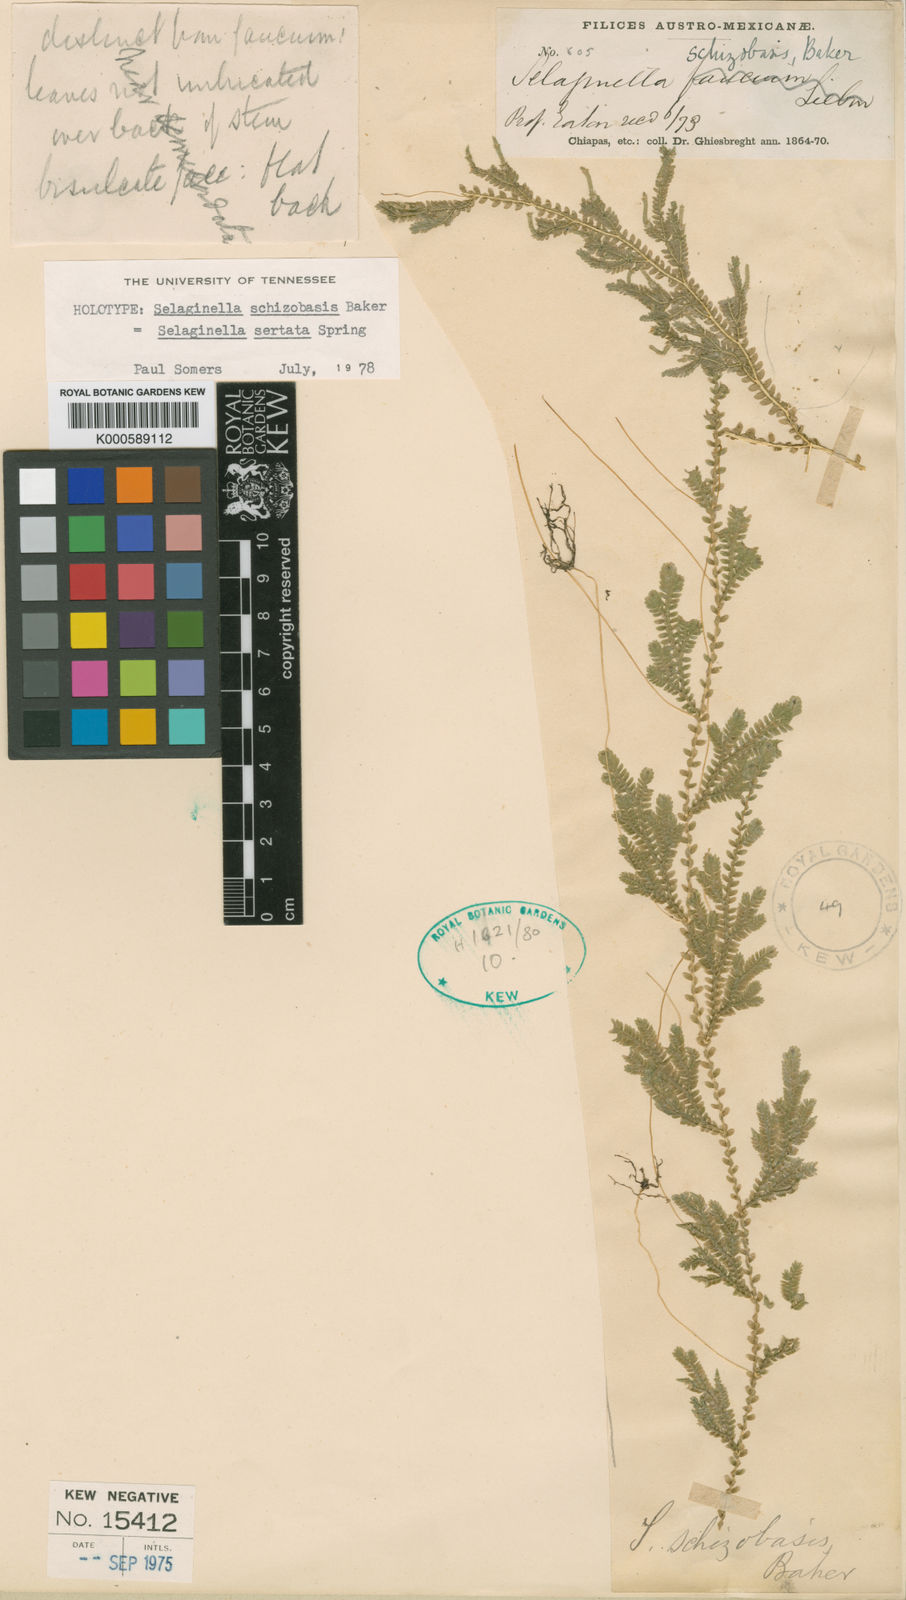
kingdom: Plantae
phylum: Tracheophyta
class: Lycopodiopsida
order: Selaginellales
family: Selaginellaceae
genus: Selaginella
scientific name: Selaginella schizobasis
